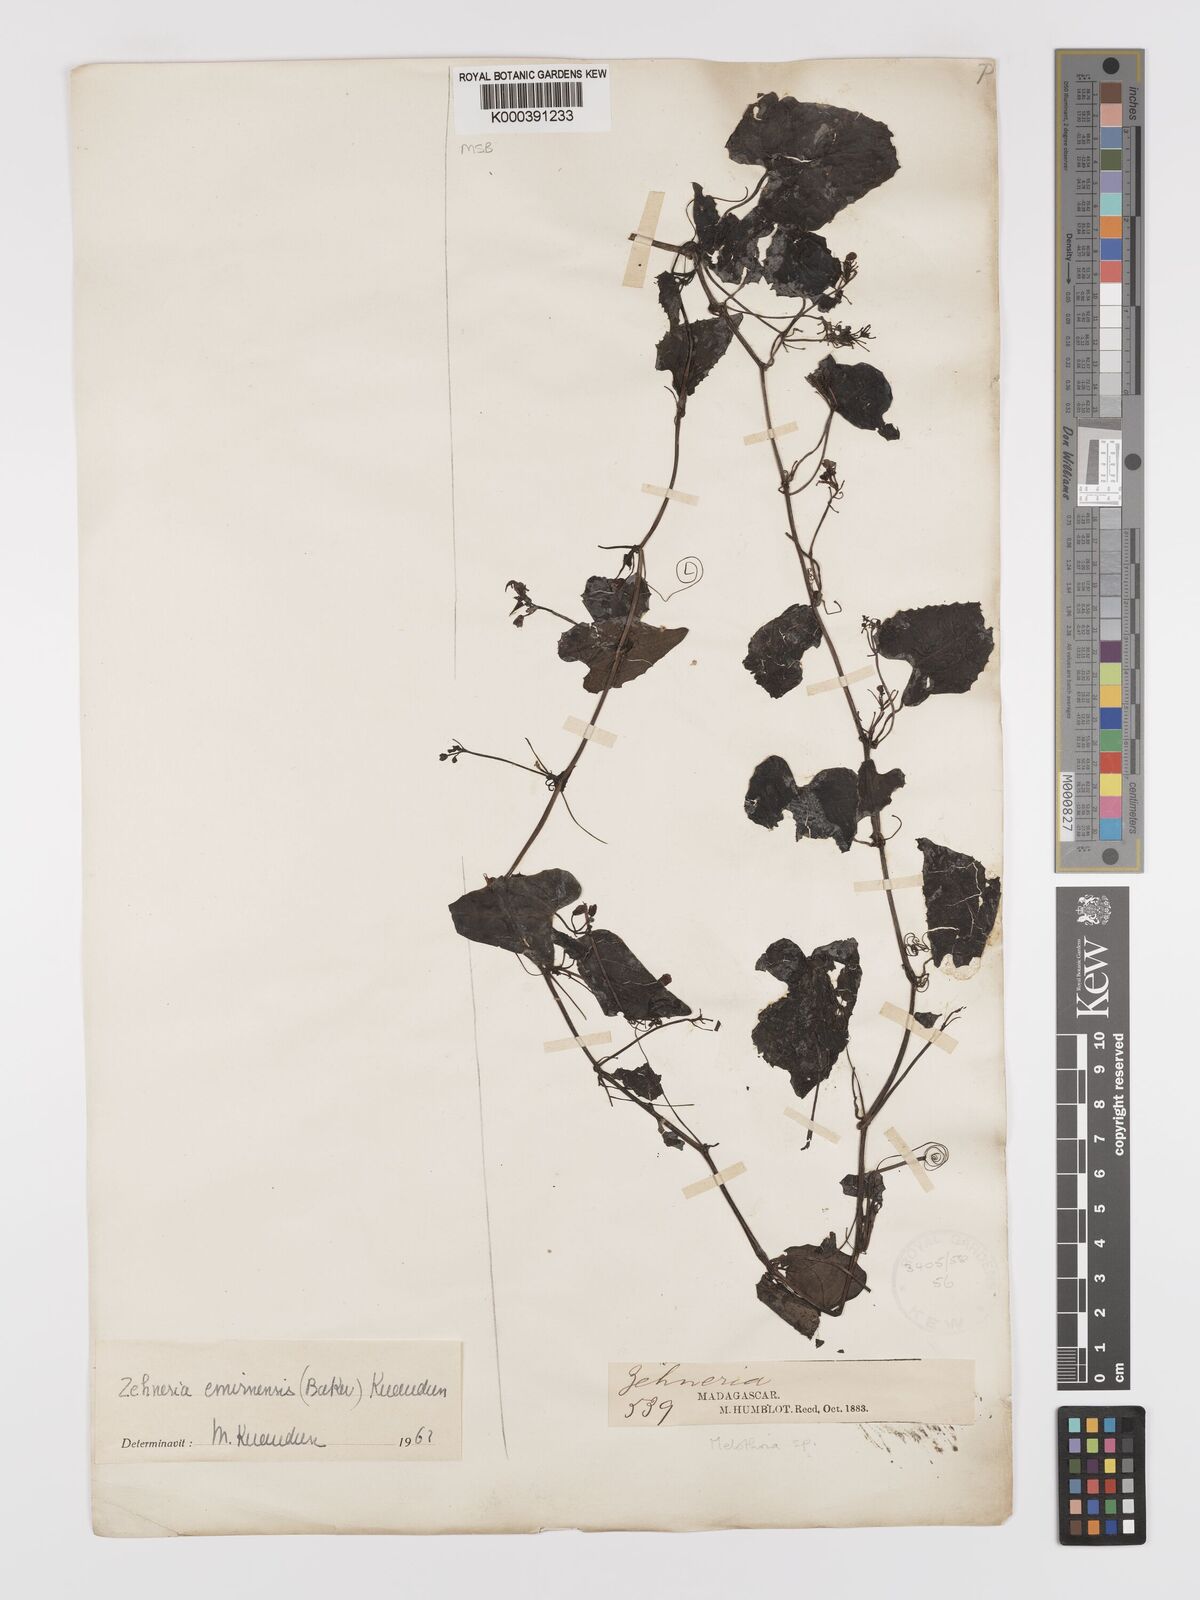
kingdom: Plantae
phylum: Tracheophyta
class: Magnoliopsida
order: Cucurbitales
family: Cucurbitaceae
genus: Zehneria
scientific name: Zehneria emirnensis
